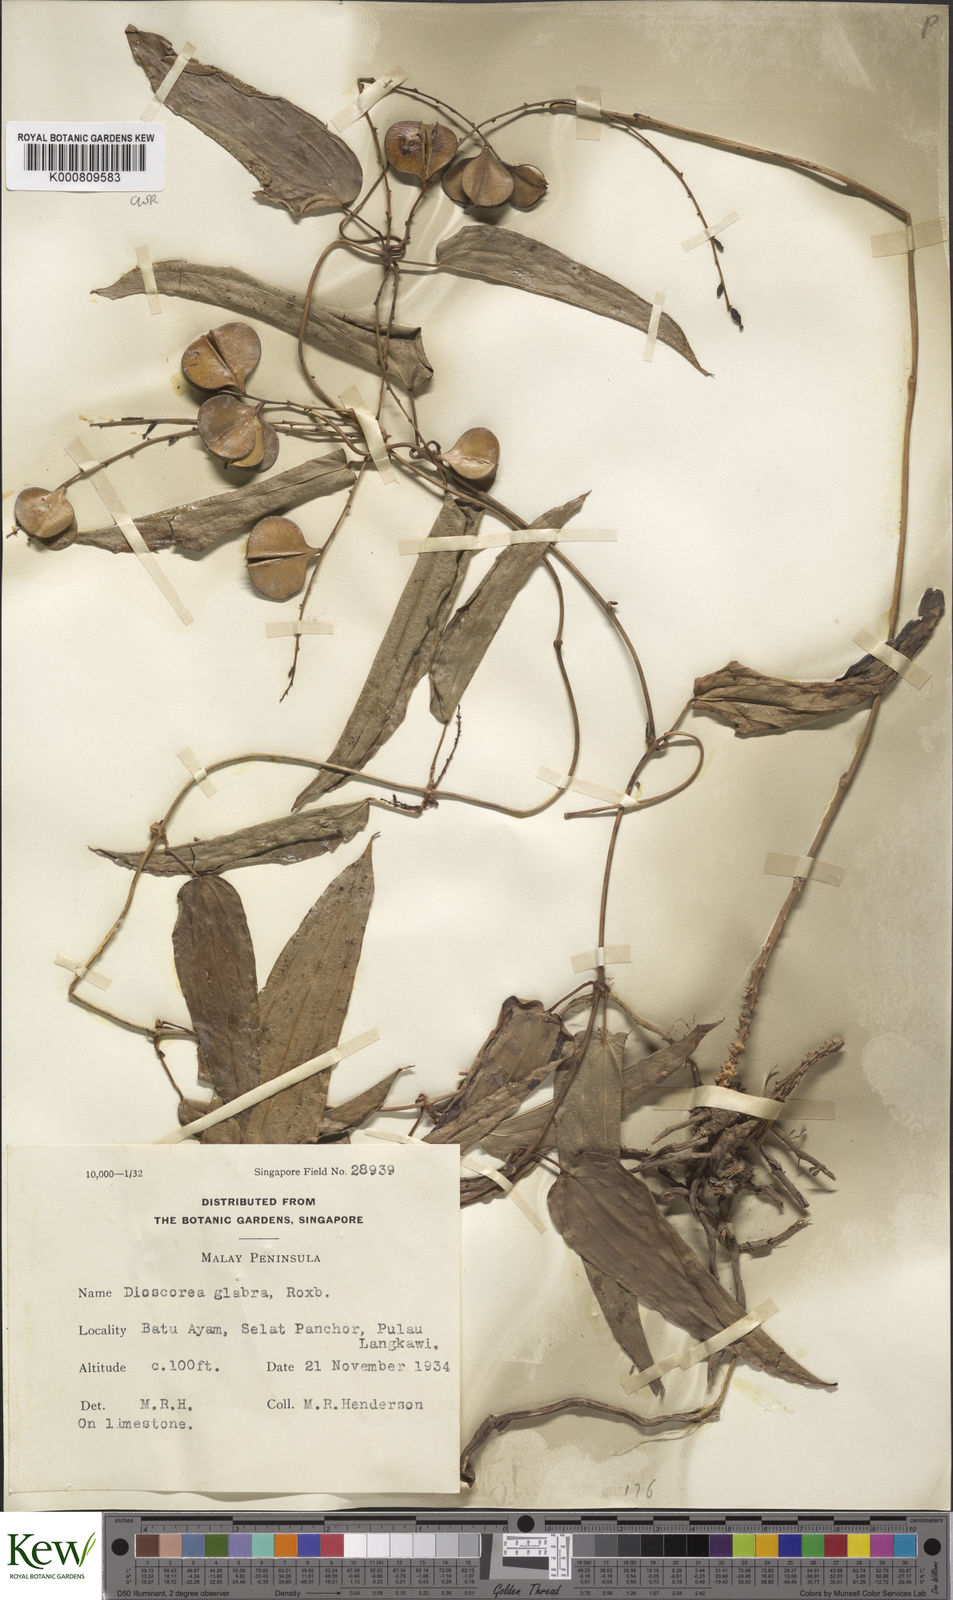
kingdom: Plantae
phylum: Tracheophyta
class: Liliopsida
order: Dioscoreales
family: Dioscoreaceae
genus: Dioscorea
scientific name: Dioscorea glabra
